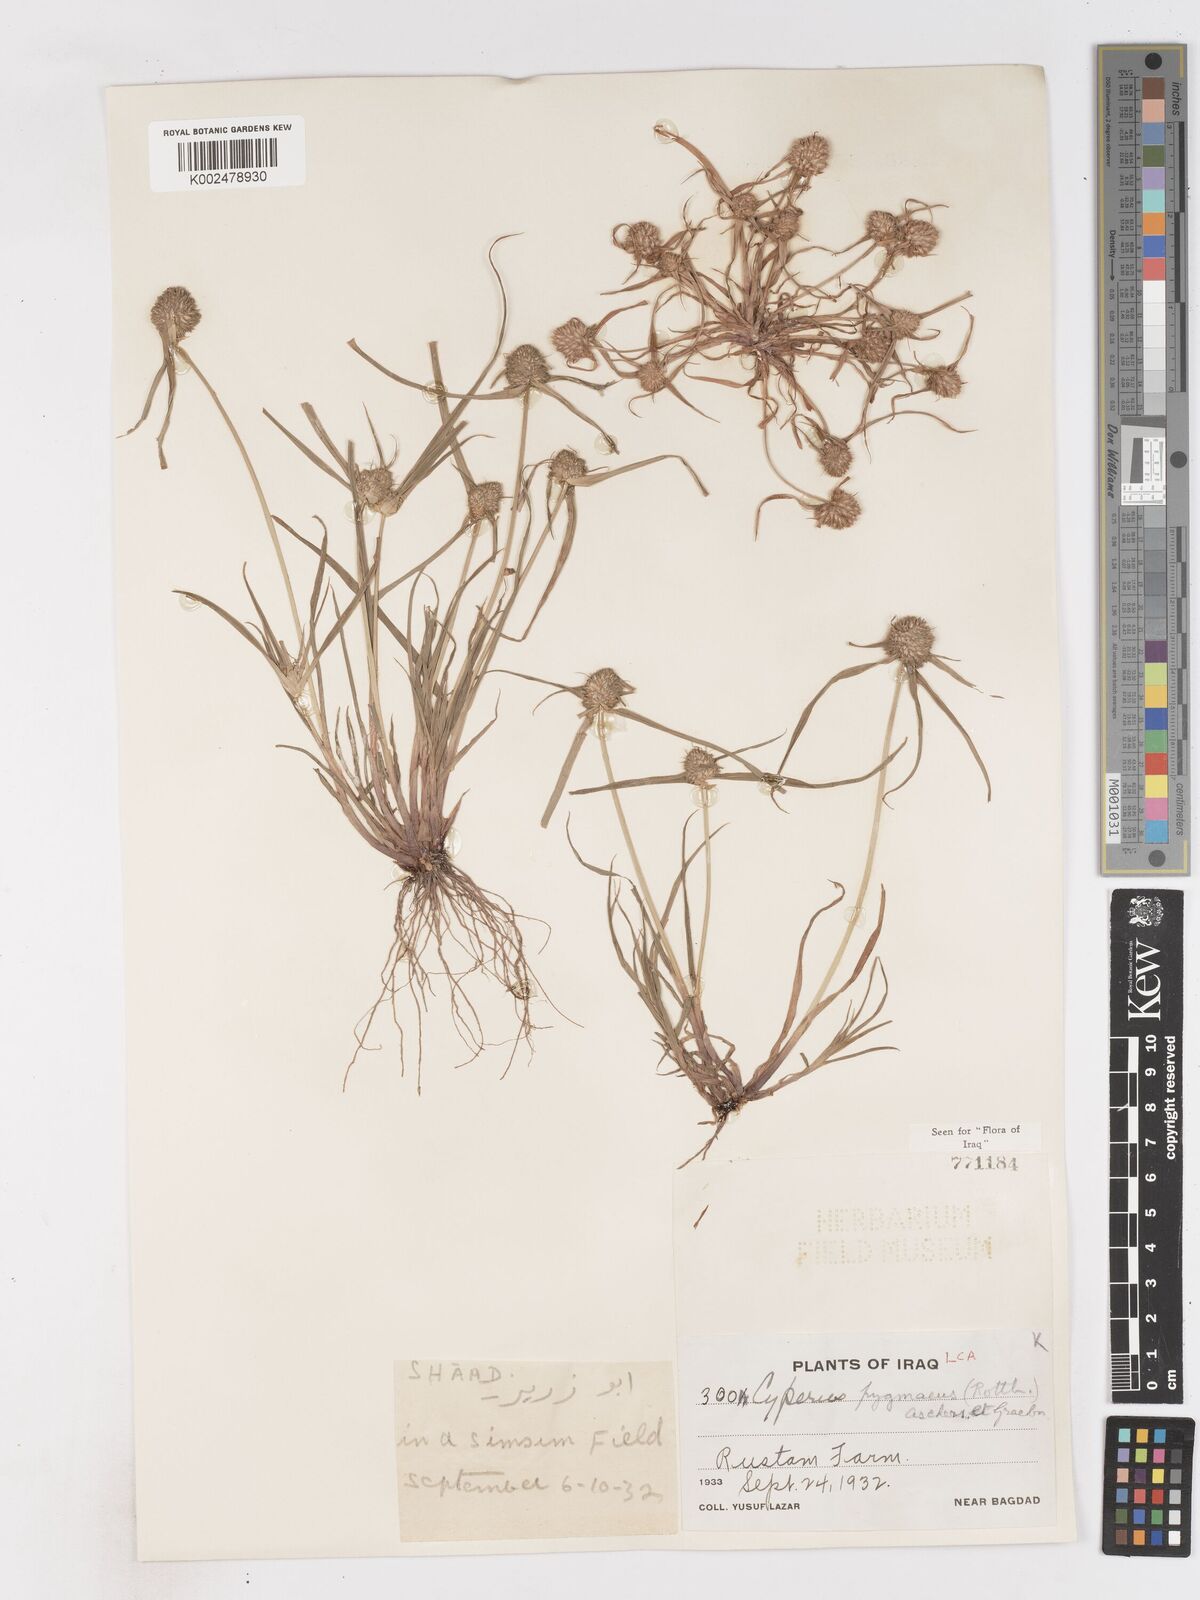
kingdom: Plantae
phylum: Tracheophyta
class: Liliopsida
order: Poales
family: Cyperaceae
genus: Cyperus
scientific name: Cyperus michelianus
